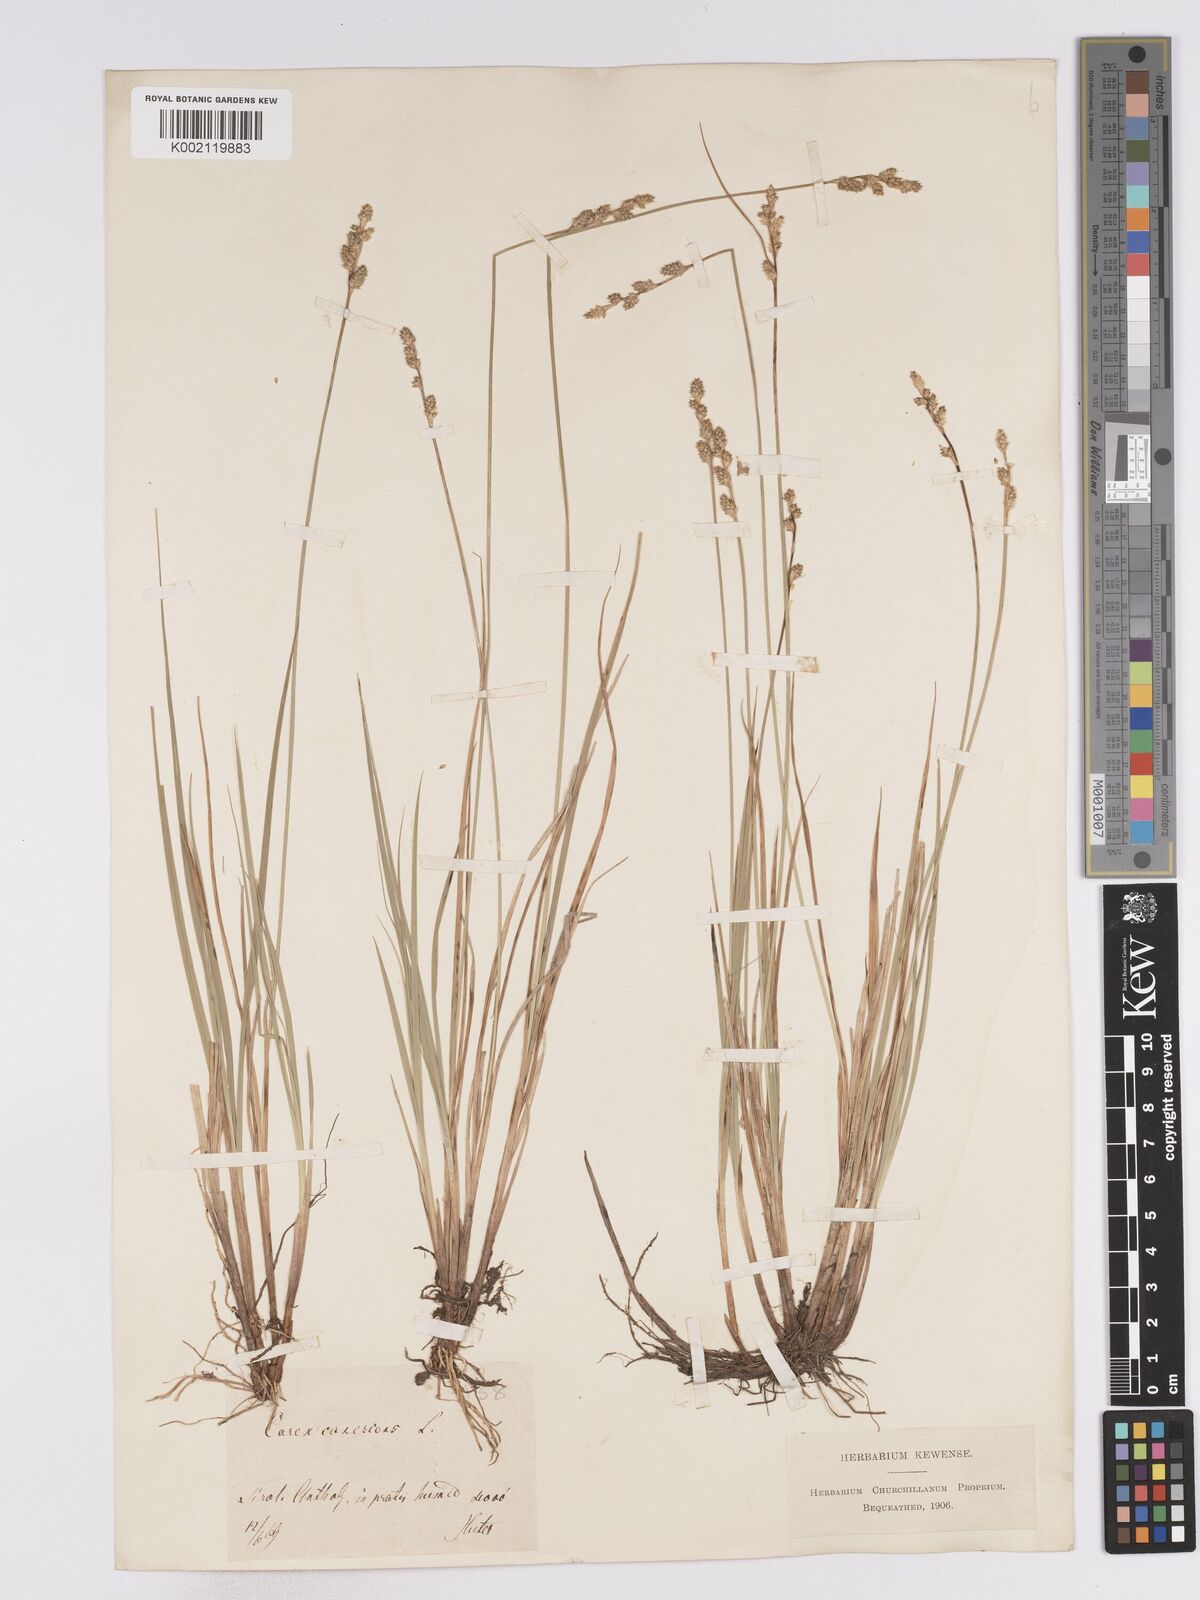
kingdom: Plantae
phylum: Tracheophyta
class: Liliopsida
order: Poales
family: Cyperaceae
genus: Carex
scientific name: Carex curta
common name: White sedge
